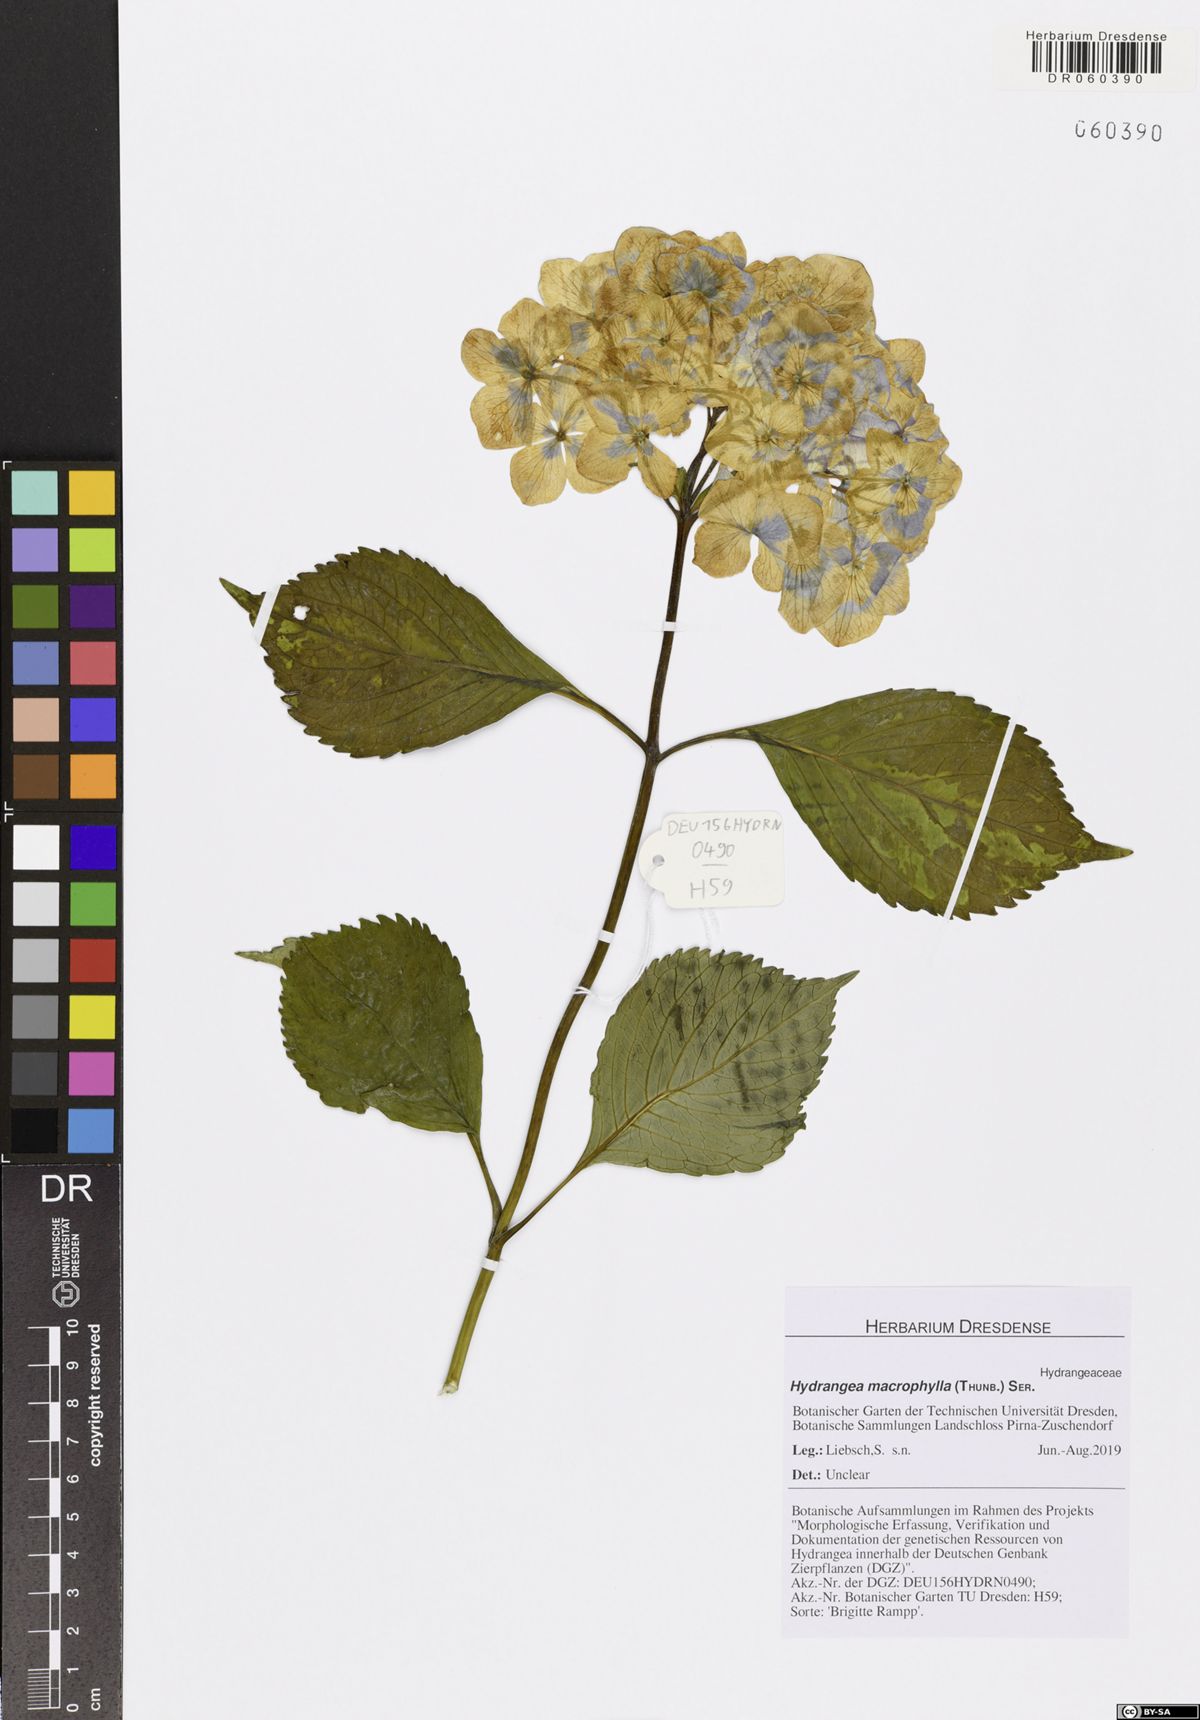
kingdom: Plantae
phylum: Tracheophyta
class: Magnoliopsida
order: Cornales
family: Hydrangeaceae
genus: Hydrangea
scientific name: Hydrangea macrophylla
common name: Hydrangea
